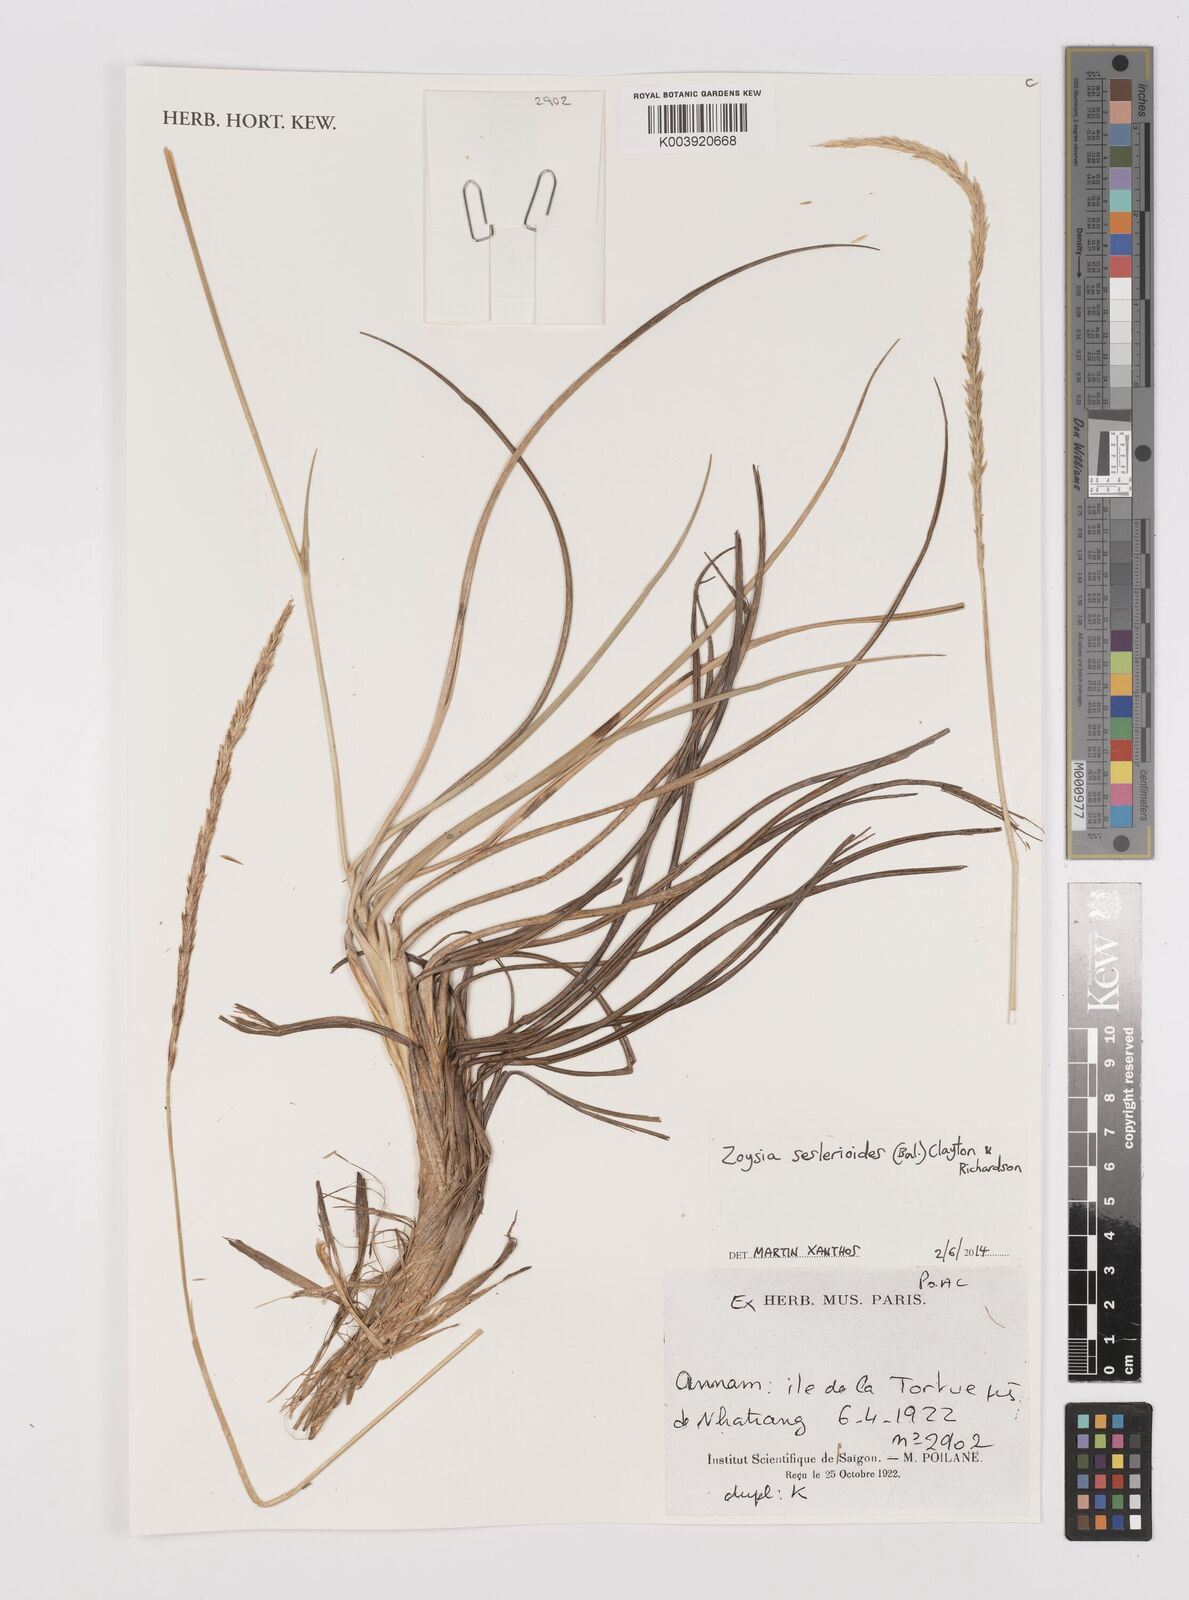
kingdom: Plantae
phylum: Tracheophyta
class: Liliopsida
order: Poales
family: Poaceae
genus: Zoysia
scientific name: Zoysia seslerioides
